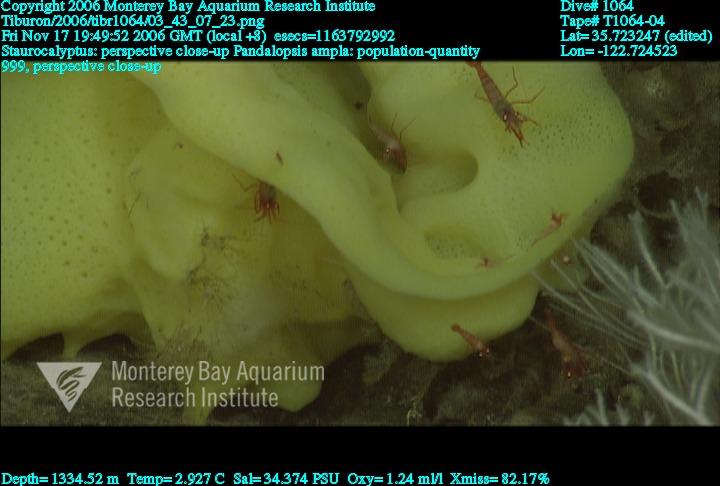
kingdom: Animalia
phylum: Porifera
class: Hexactinellida
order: Lyssacinosida
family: Rossellidae
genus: Staurocalyptus
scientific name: Staurocalyptus
